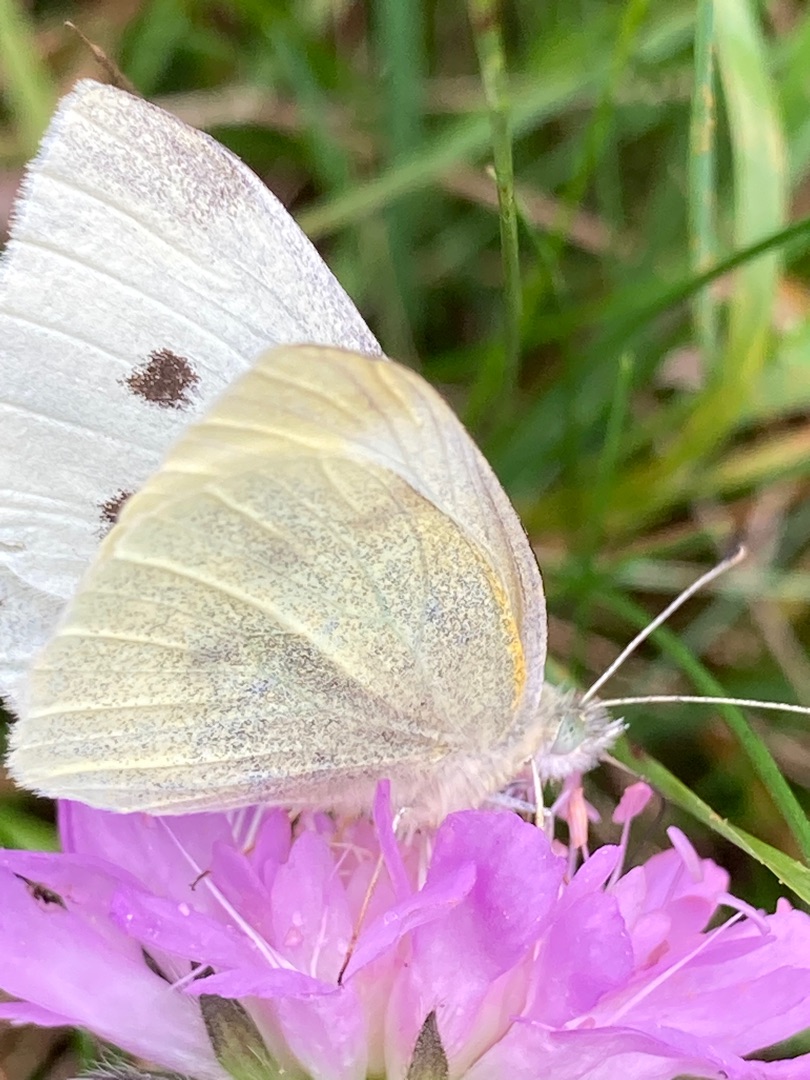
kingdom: Animalia
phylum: Arthropoda
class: Insecta
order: Lepidoptera
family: Pieridae
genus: Pieris
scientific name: Pieris rapae
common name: Lille kålsommerfugl
